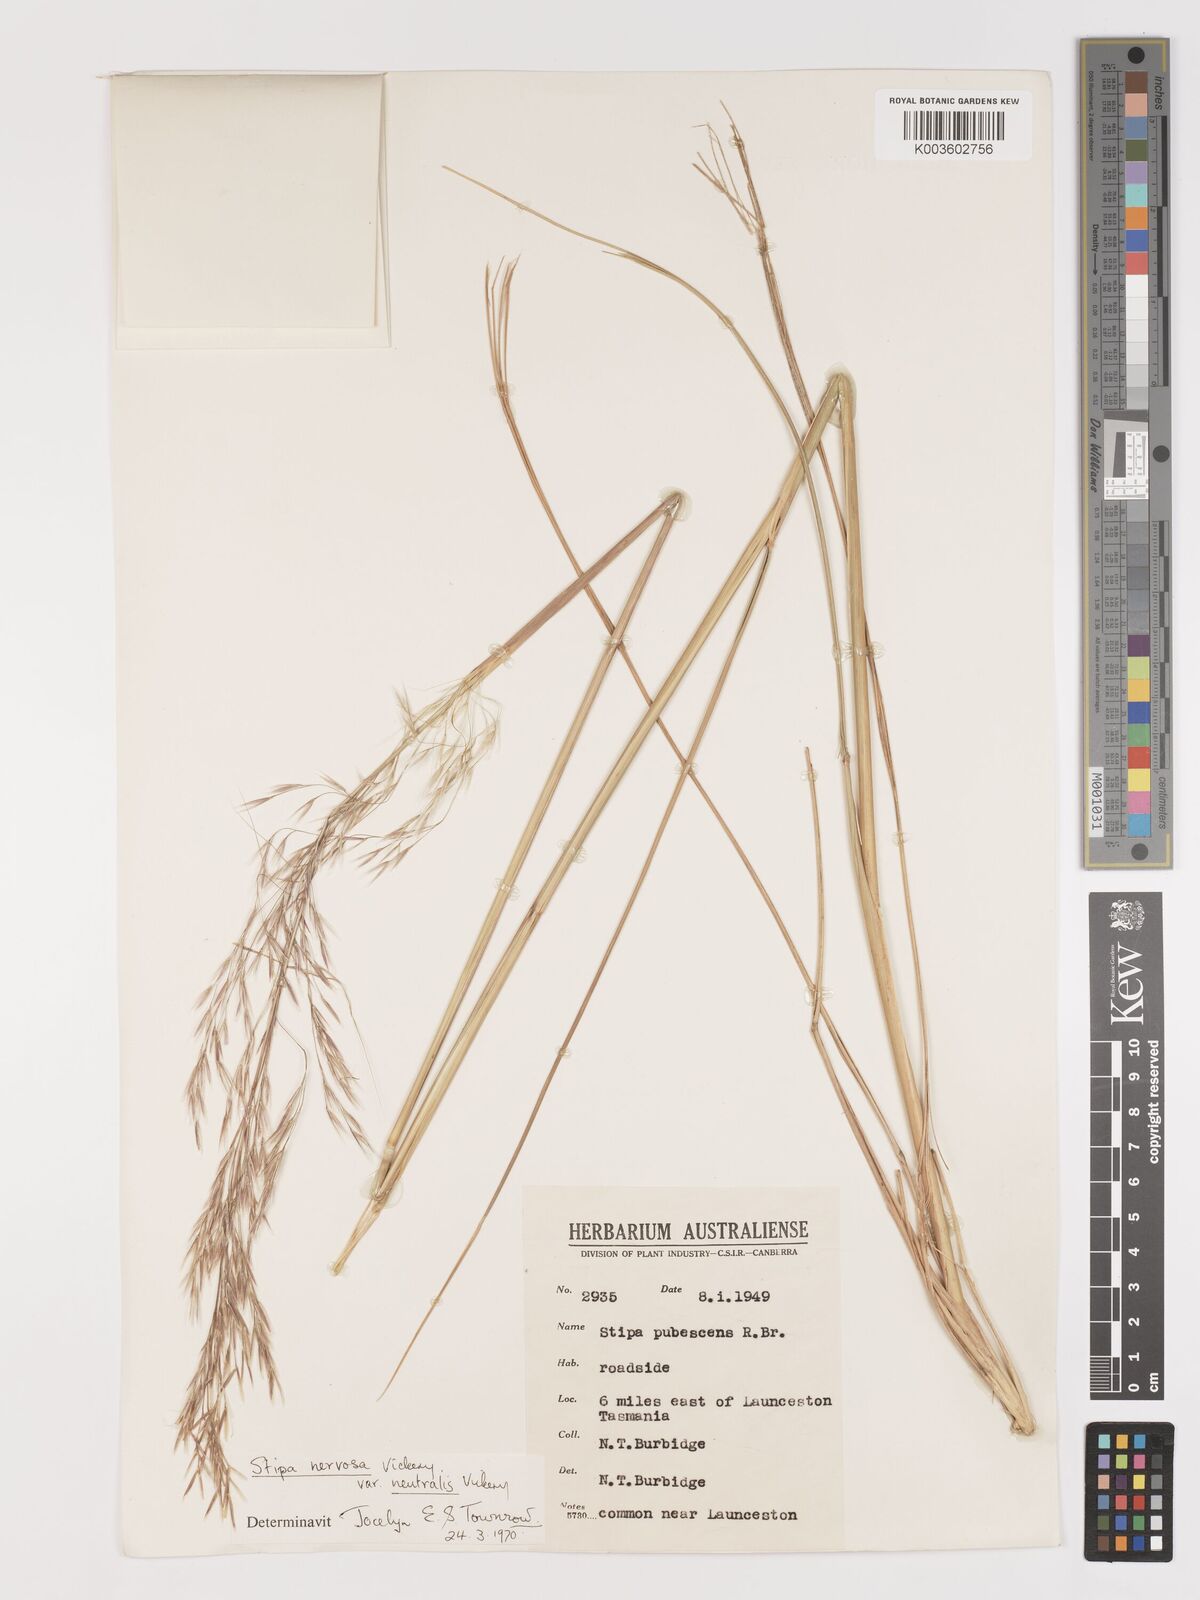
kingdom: Plantae
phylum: Tracheophyta
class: Liliopsida
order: Poales
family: Poaceae
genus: Austrostipa
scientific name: Austrostipa rudis
